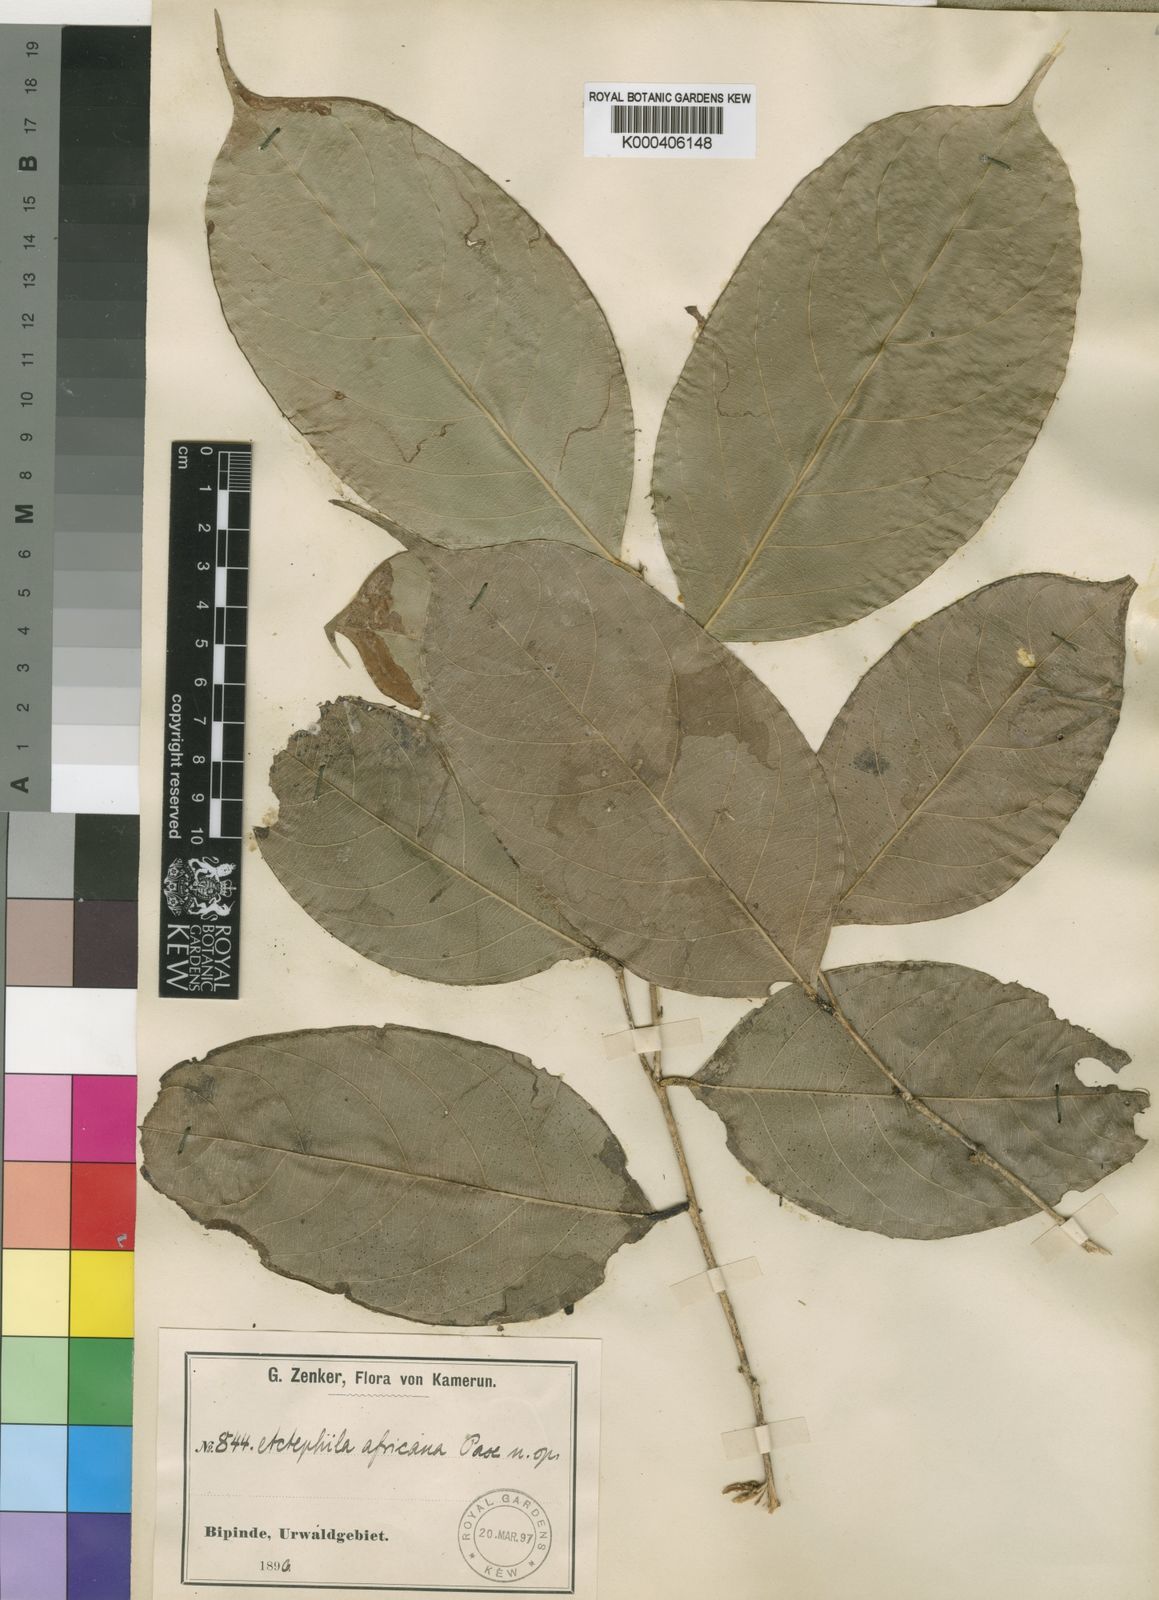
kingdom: Plantae
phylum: Tracheophyta
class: Magnoliopsida
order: Malpighiales
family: Phyllanthaceae
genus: Pentabrachion
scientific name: Pentabrachion
